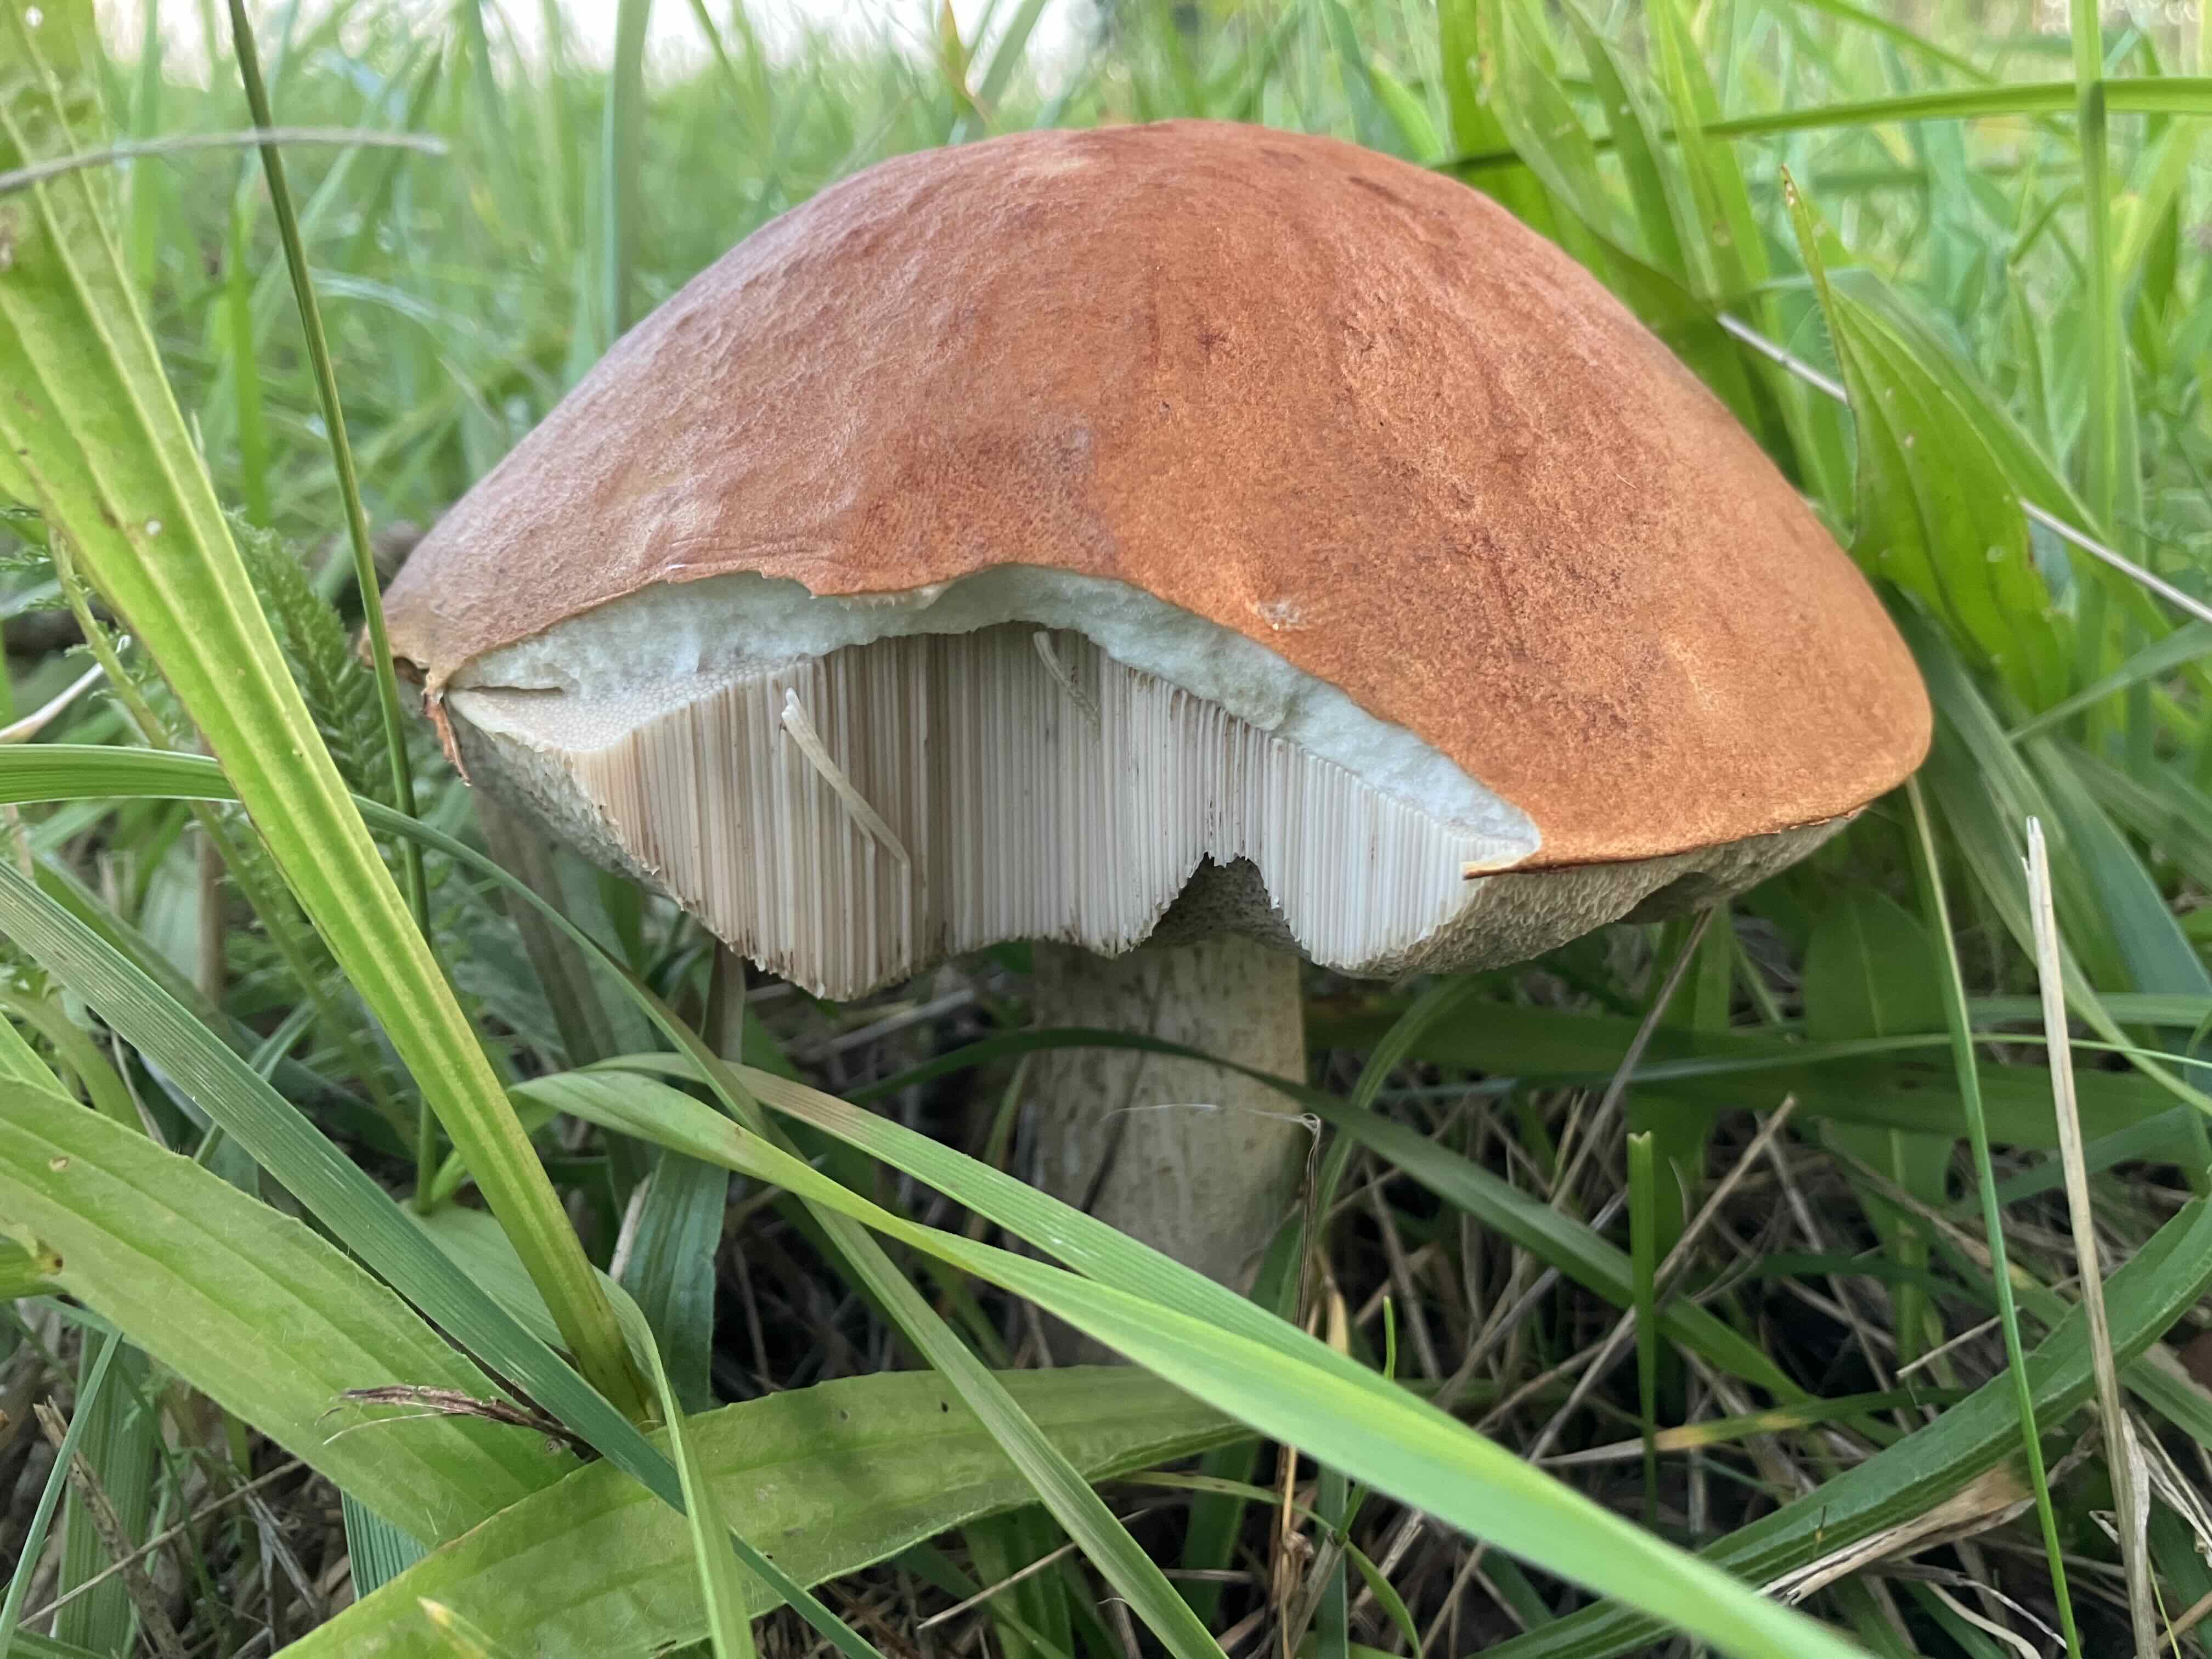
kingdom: Fungi
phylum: Basidiomycota
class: Agaricomycetes
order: Boletales
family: Boletaceae
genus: Leccinum
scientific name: Leccinum albostipitatum
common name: aspe-skælrørhat
